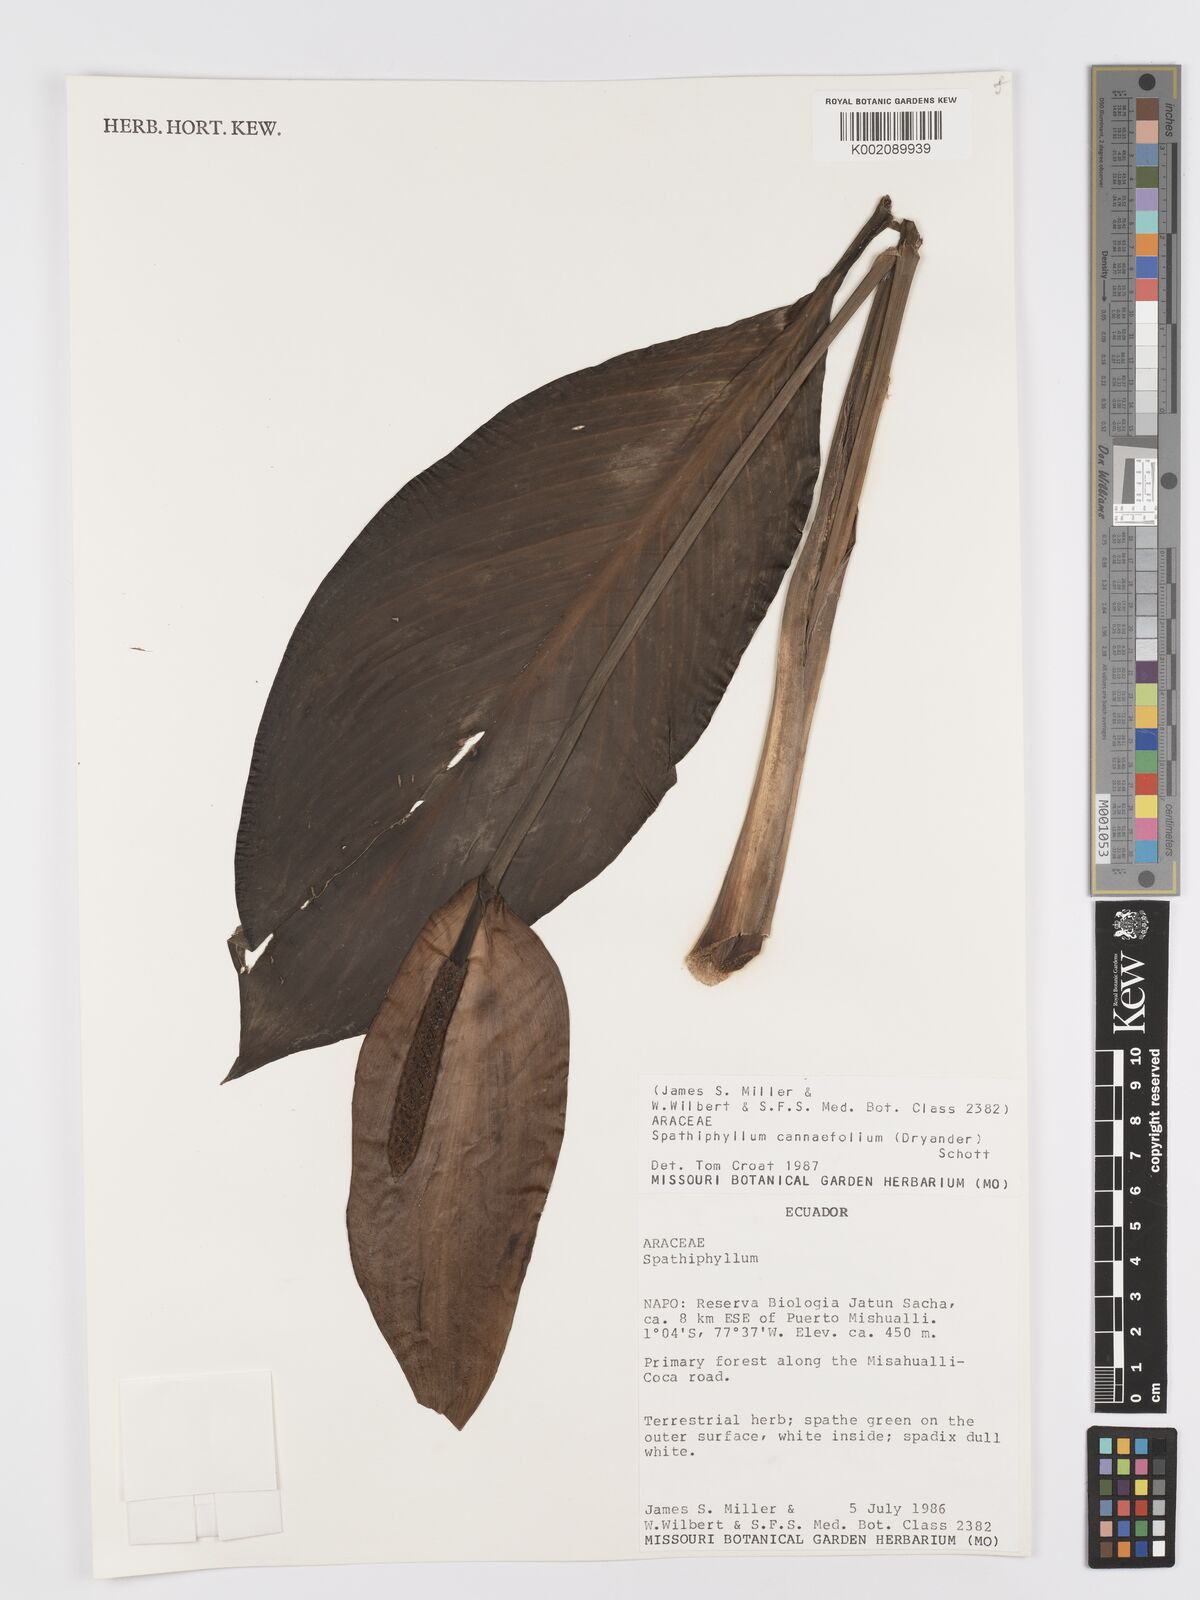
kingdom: Plantae
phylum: Tracheophyta
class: Liliopsida
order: Alismatales
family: Araceae
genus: Spathiphyllum
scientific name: Spathiphyllum cannifolium
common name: Spatheflower
